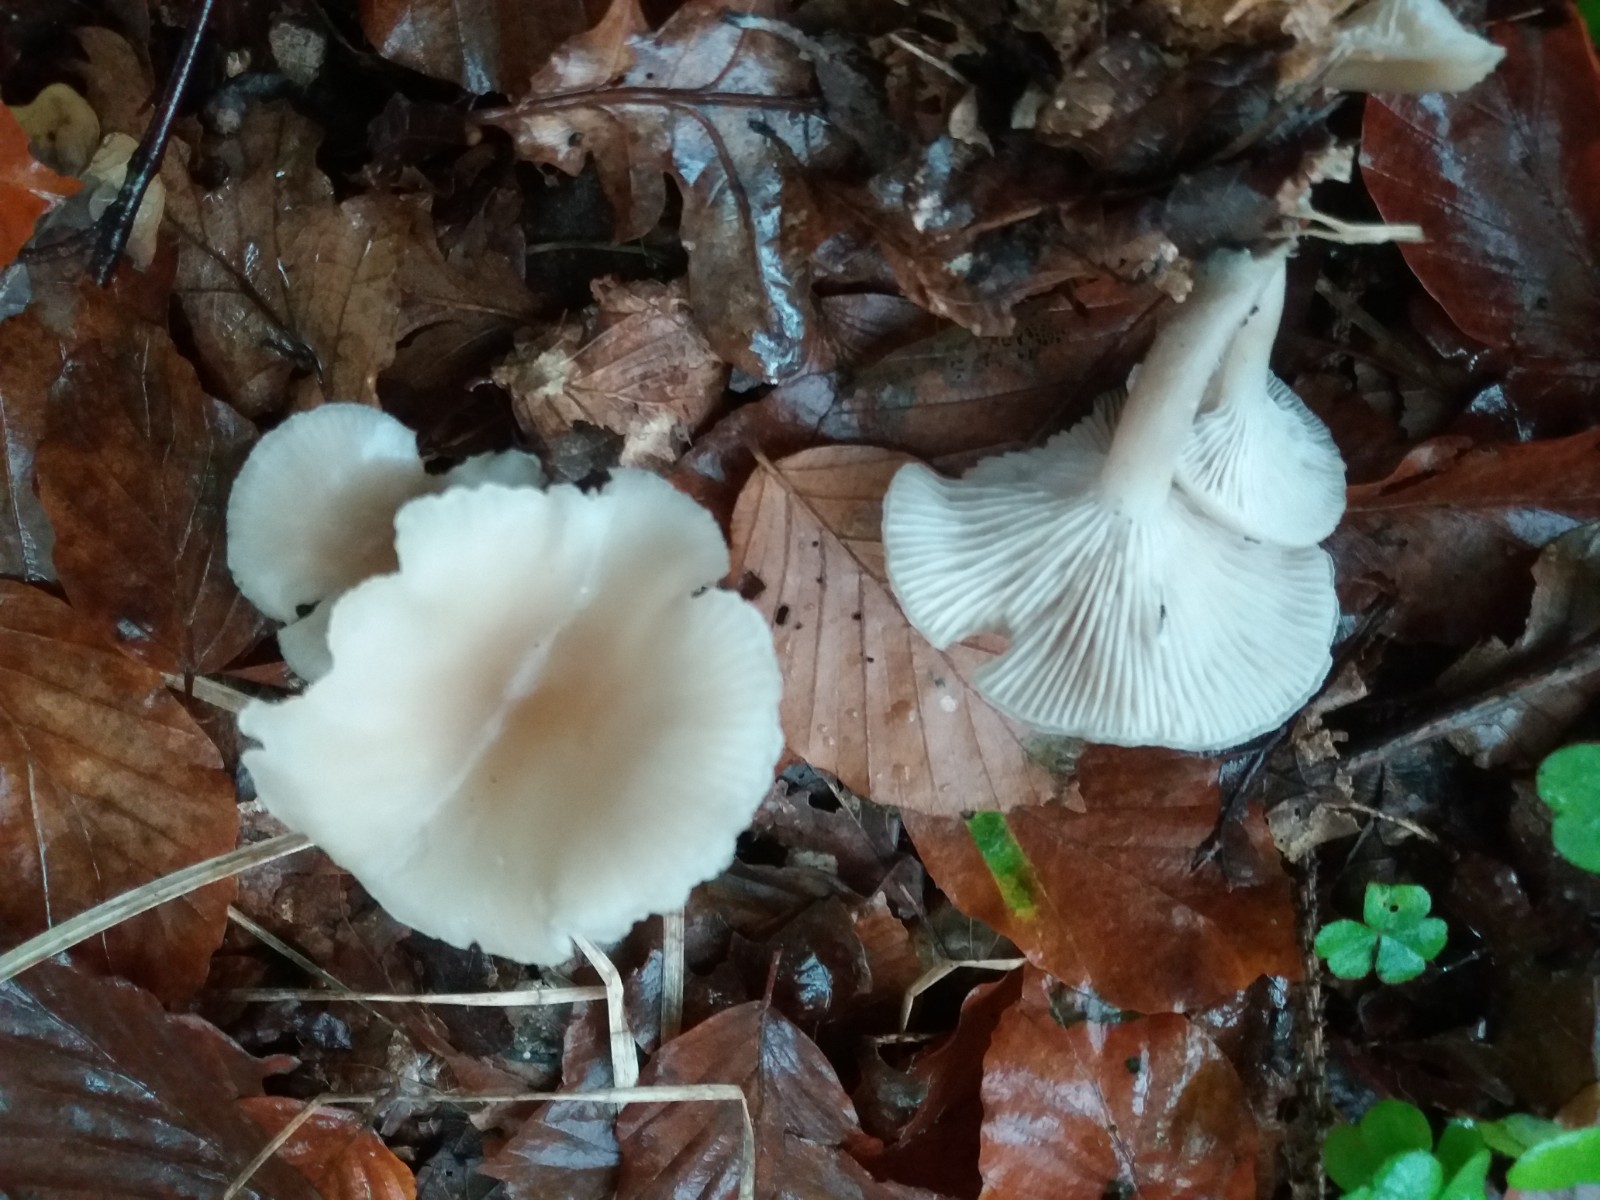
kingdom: Fungi
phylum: Basidiomycota
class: Agaricomycetes
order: Agaricales
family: Tricholomataceae
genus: Clitocybe
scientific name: Clitocybe subspadicea
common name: nitrøs tragthat
